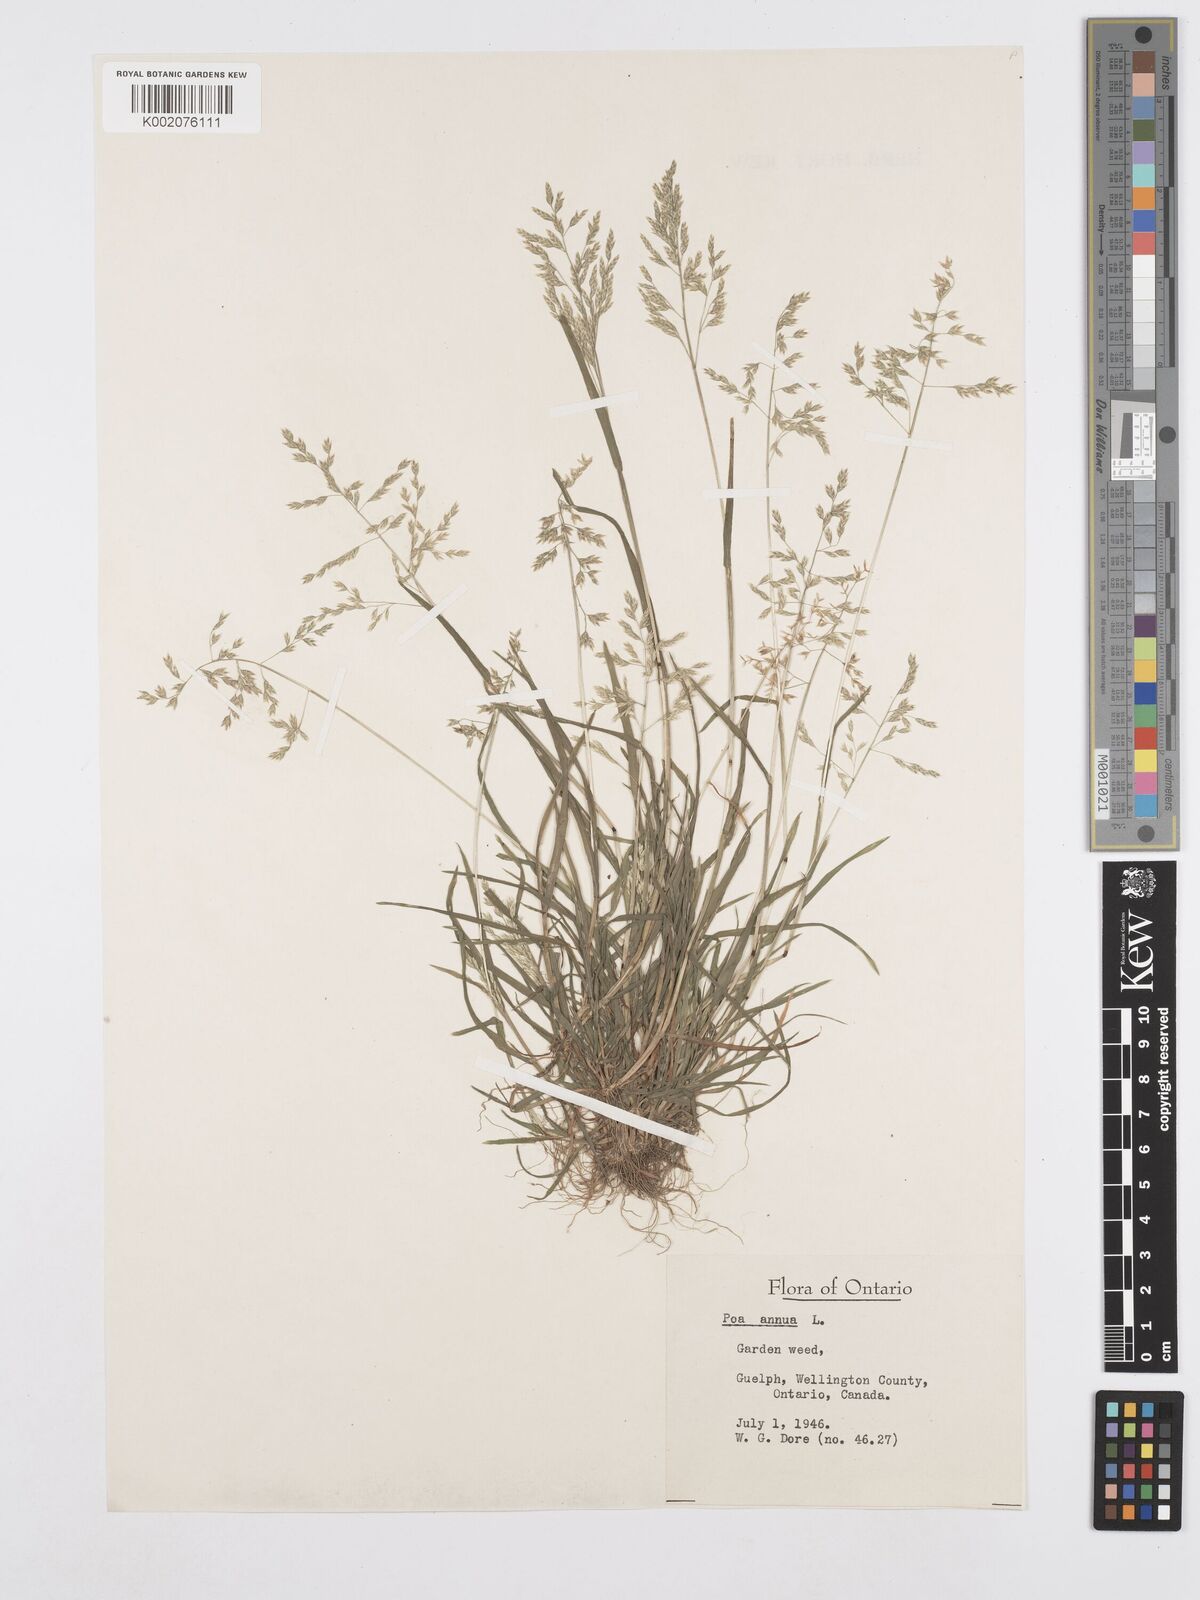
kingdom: Plantae
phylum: Tracheophyta
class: Liliopsida
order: Poales
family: Poaceae
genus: Poa
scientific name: Poa annua
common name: Annual bluegrass
